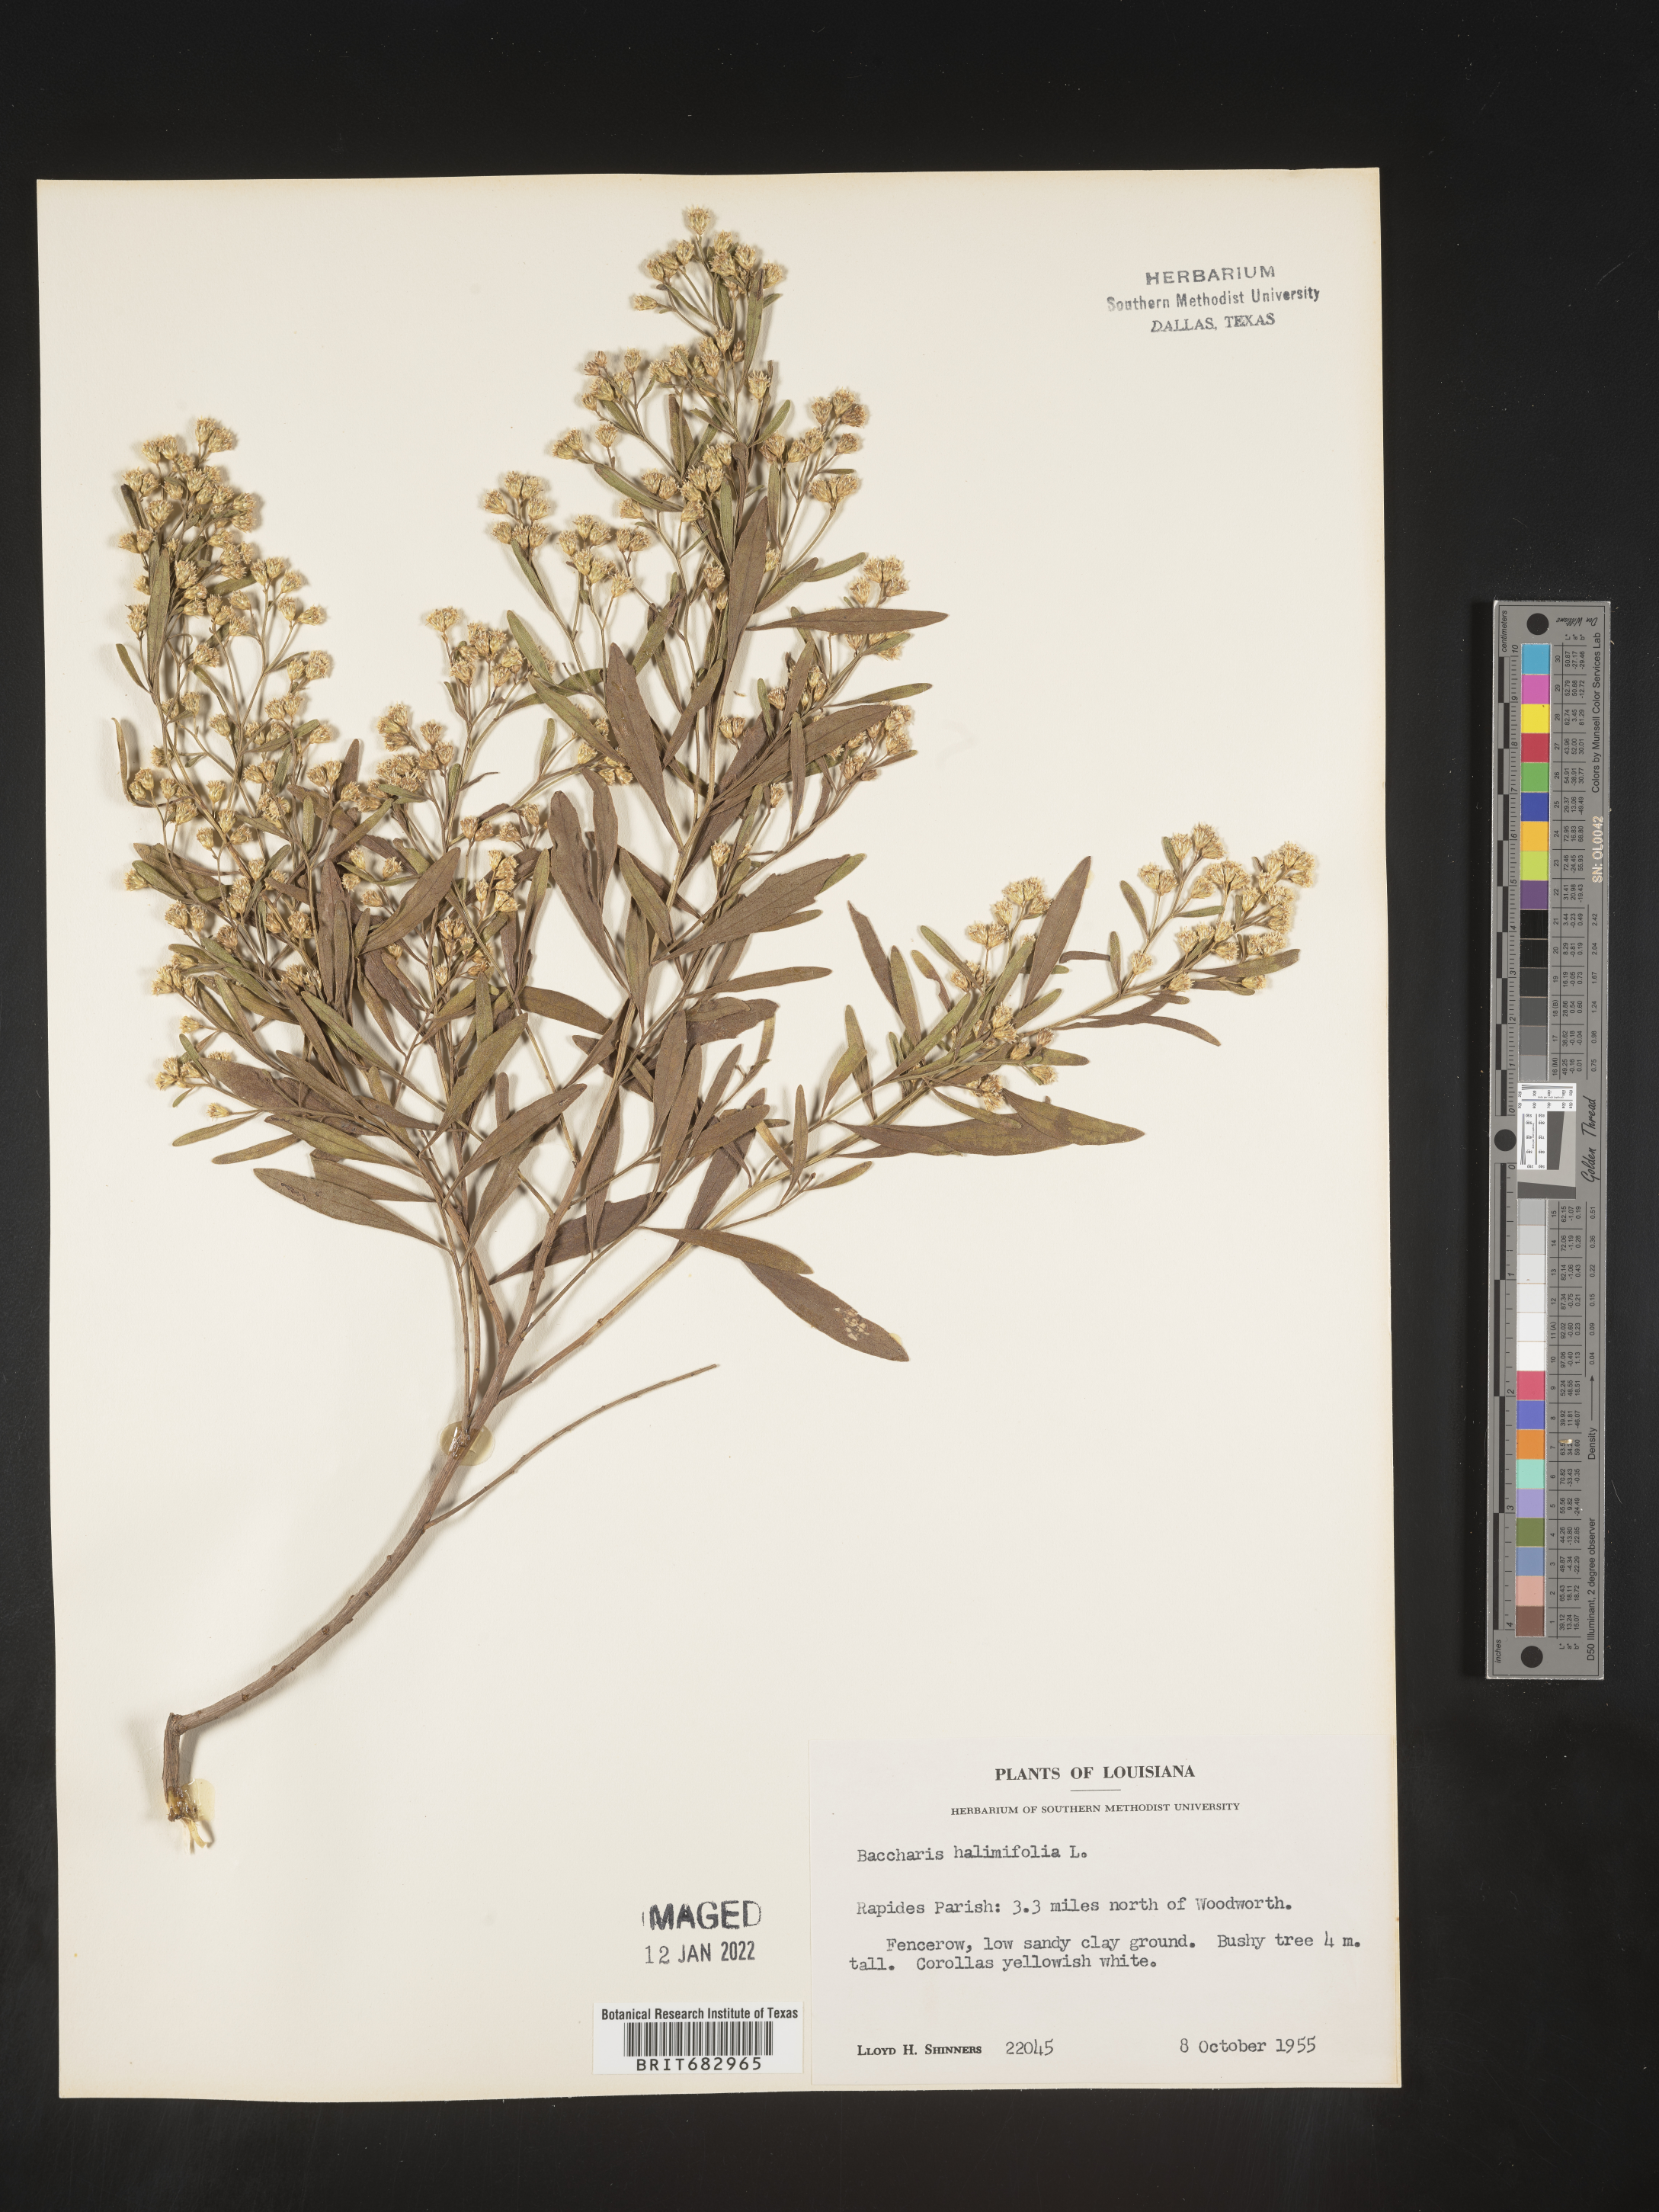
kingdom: Plantae
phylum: Tracheophyta
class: Magnoliopsida
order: Asterales
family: Asteraceae
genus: Nidorella
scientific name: Nidorella ivifolia
